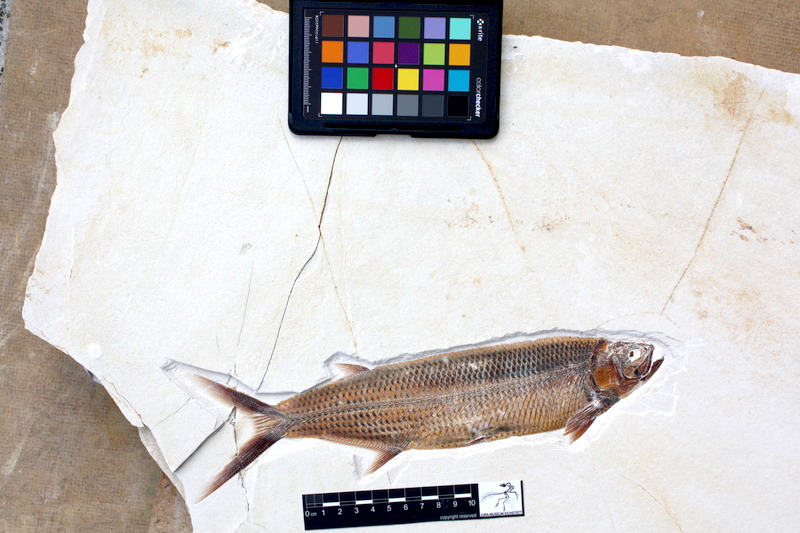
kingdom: Animalia
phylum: Chordata
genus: Thrissops
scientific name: Thrissops formosus
